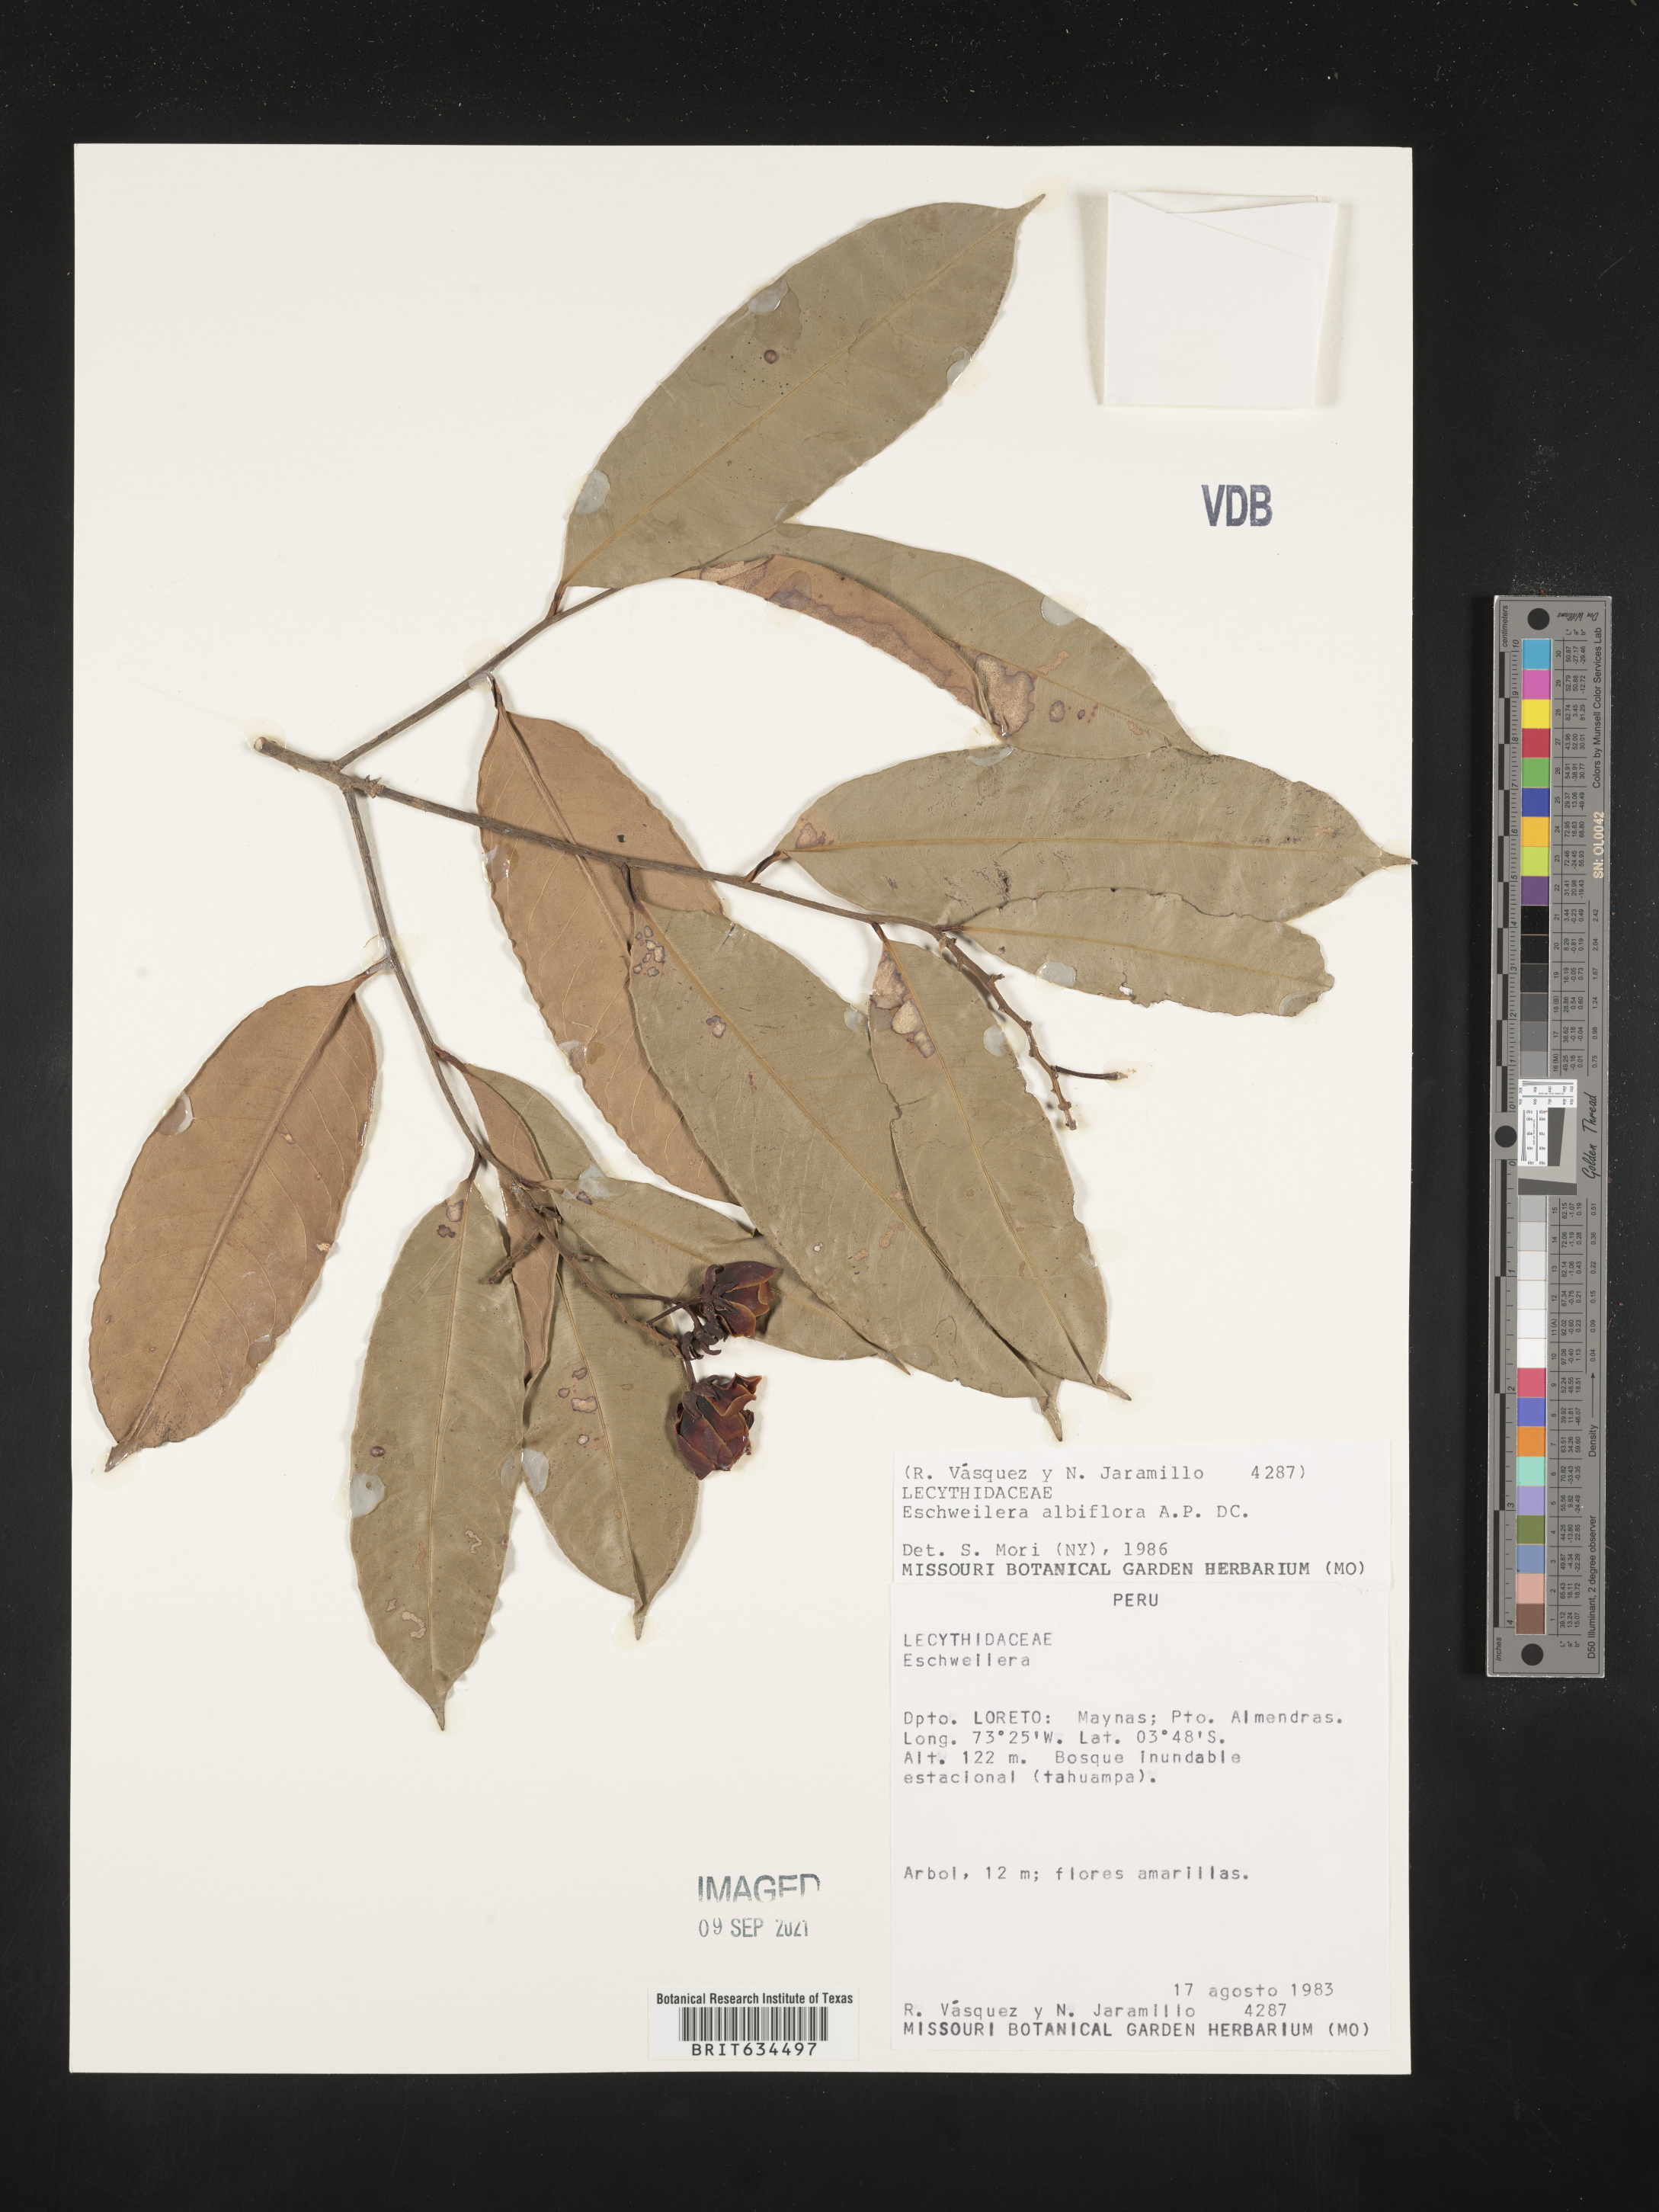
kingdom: Plantae
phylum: Tracheophyta
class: Magnoliopsida
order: Ericales
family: Lecythidaceae
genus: Eschweilera
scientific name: Eschweilera
